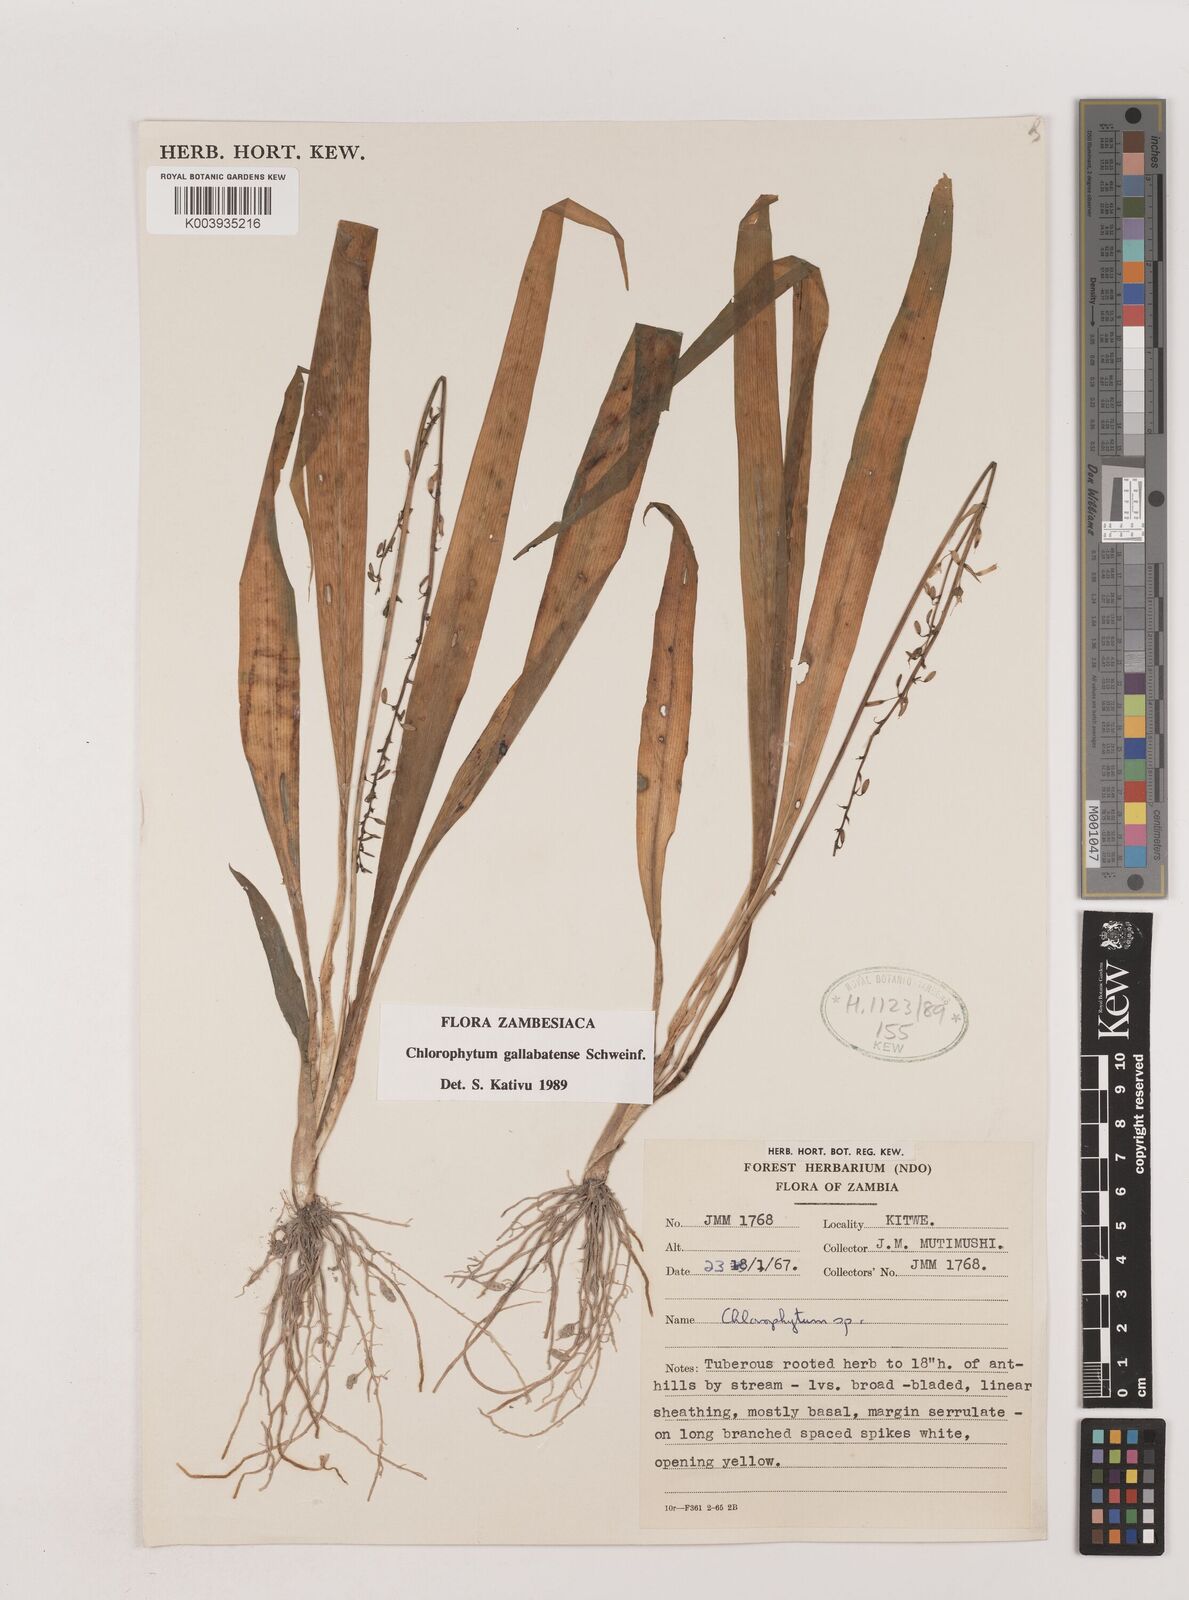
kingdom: Plantae
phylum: Tracheophyta
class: Liliopsida
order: Asparagales
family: Asparagaceae
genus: Chlorophytum
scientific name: Chlorophytum gallabatense
